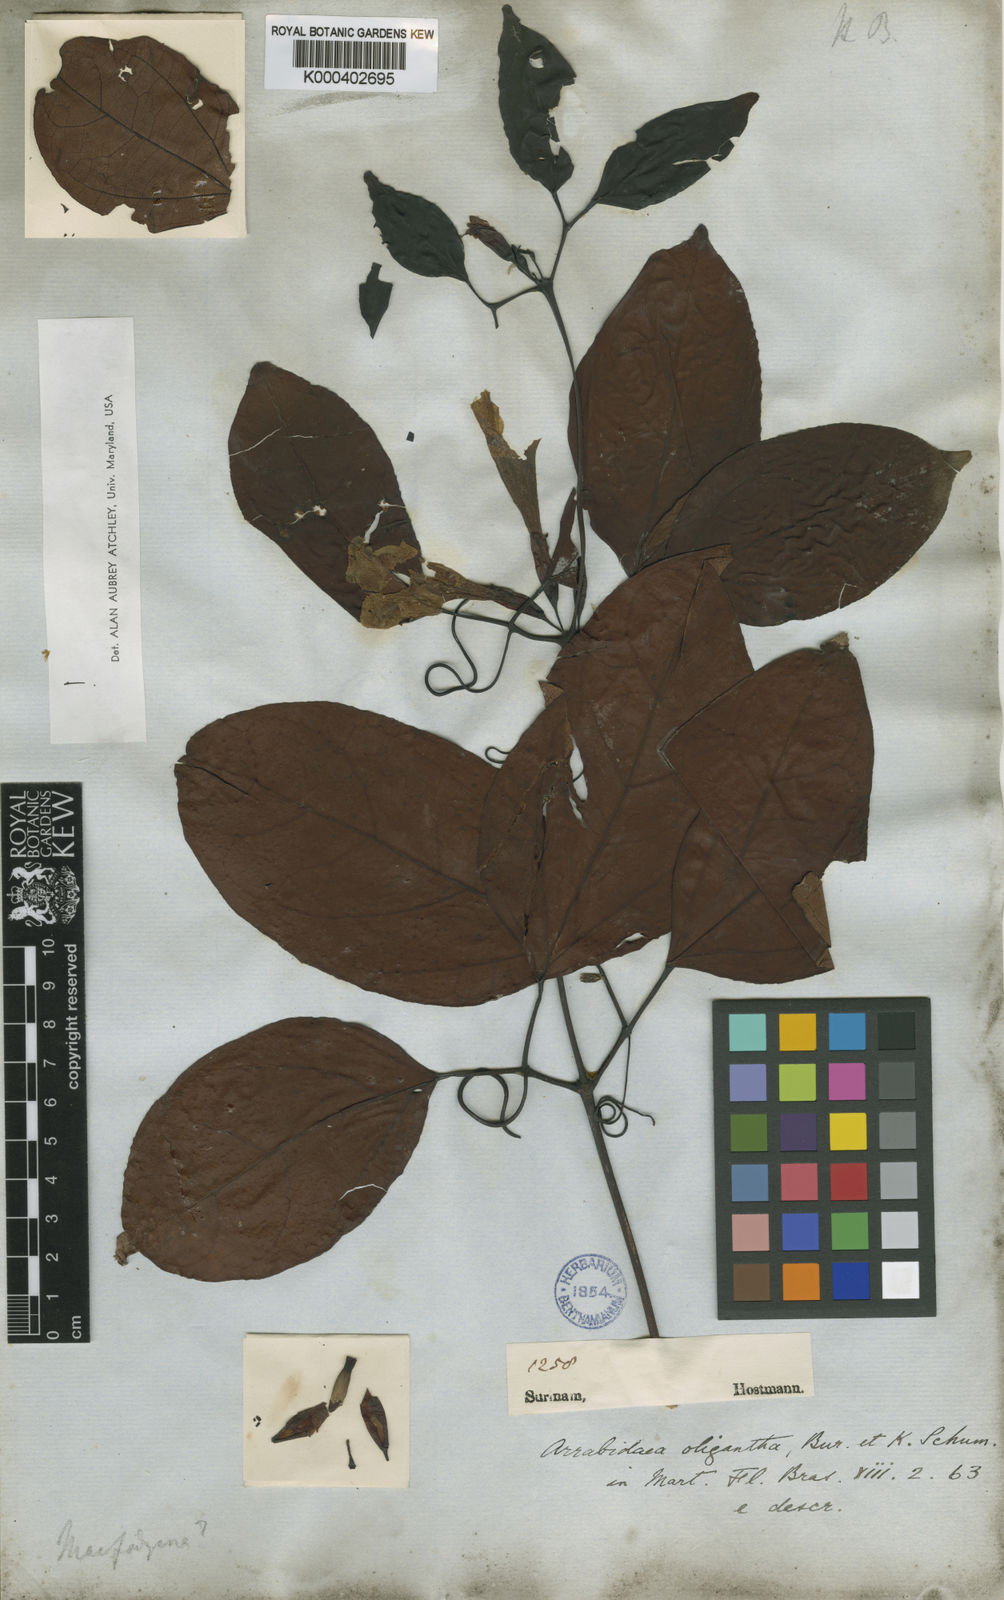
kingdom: Plantae
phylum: Tracheophyta
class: Magnoliopsida
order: Lamiales
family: Bignoniaceae
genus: Fridericia
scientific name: Fridericia japurensis
